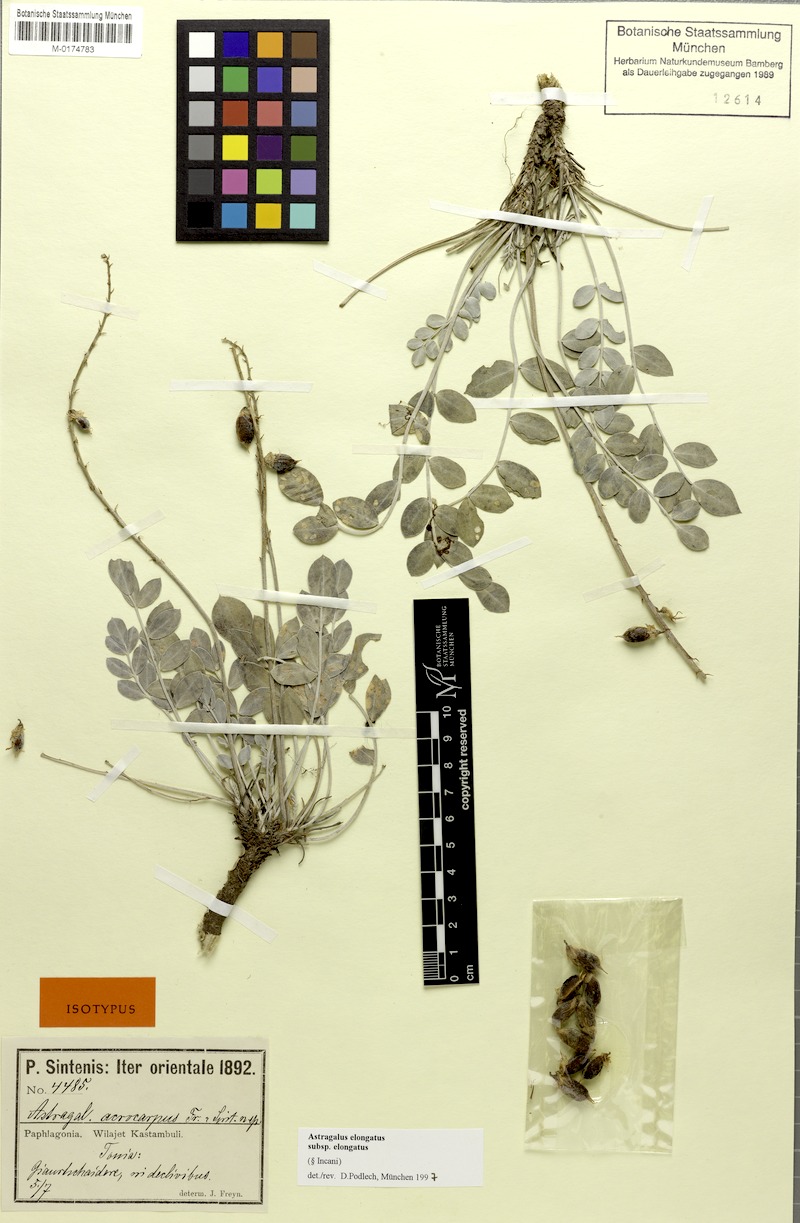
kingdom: Plantae
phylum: Tracheophyta
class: Magnoliopsida
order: Fabales
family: Fabaceae
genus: Astragalus
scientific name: Astragalus elongatus
